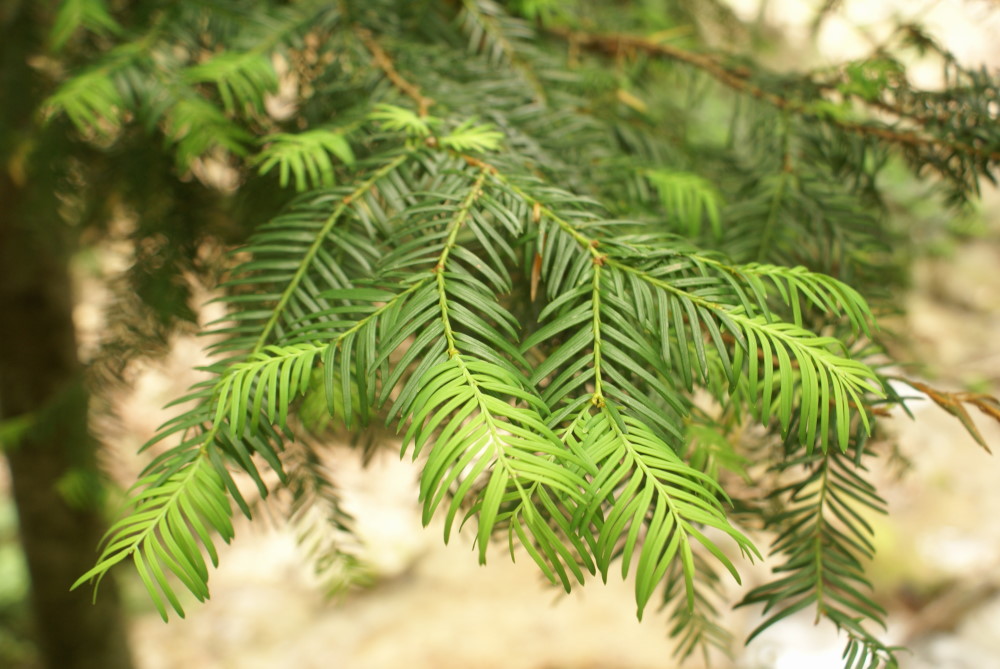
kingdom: Plantae
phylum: Tracheophyta
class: Pinopsida
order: Pinales
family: Taxaceae
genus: Taxus
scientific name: Taxus baccata
